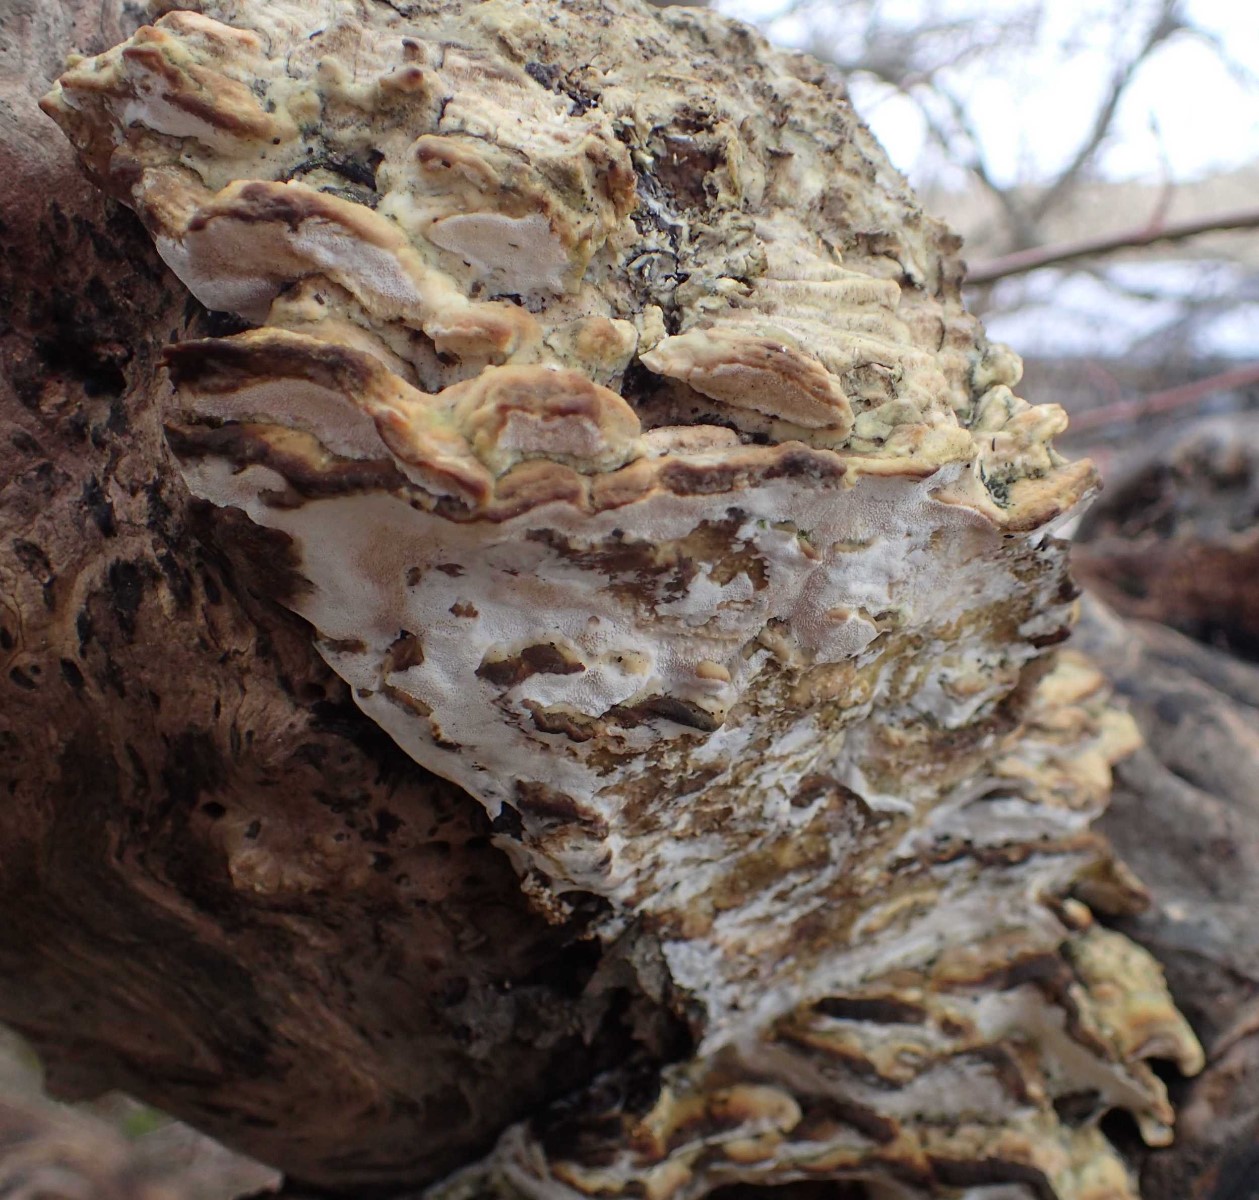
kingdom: Fungi
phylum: Basidiomycota
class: Agaricomycetes
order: Hymenochaetales
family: Oxyporaceae
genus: Oxyporus
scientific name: Oxyporus populinus
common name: sammenvokset trylleporesvamp
